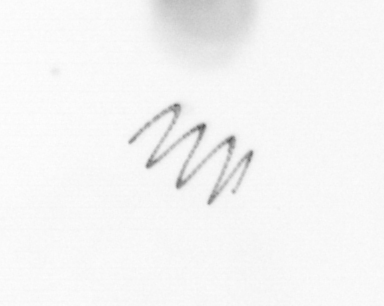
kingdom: Chromista
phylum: Ochrophyta
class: Bacillariophyceae
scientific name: Bacillariophyceae
